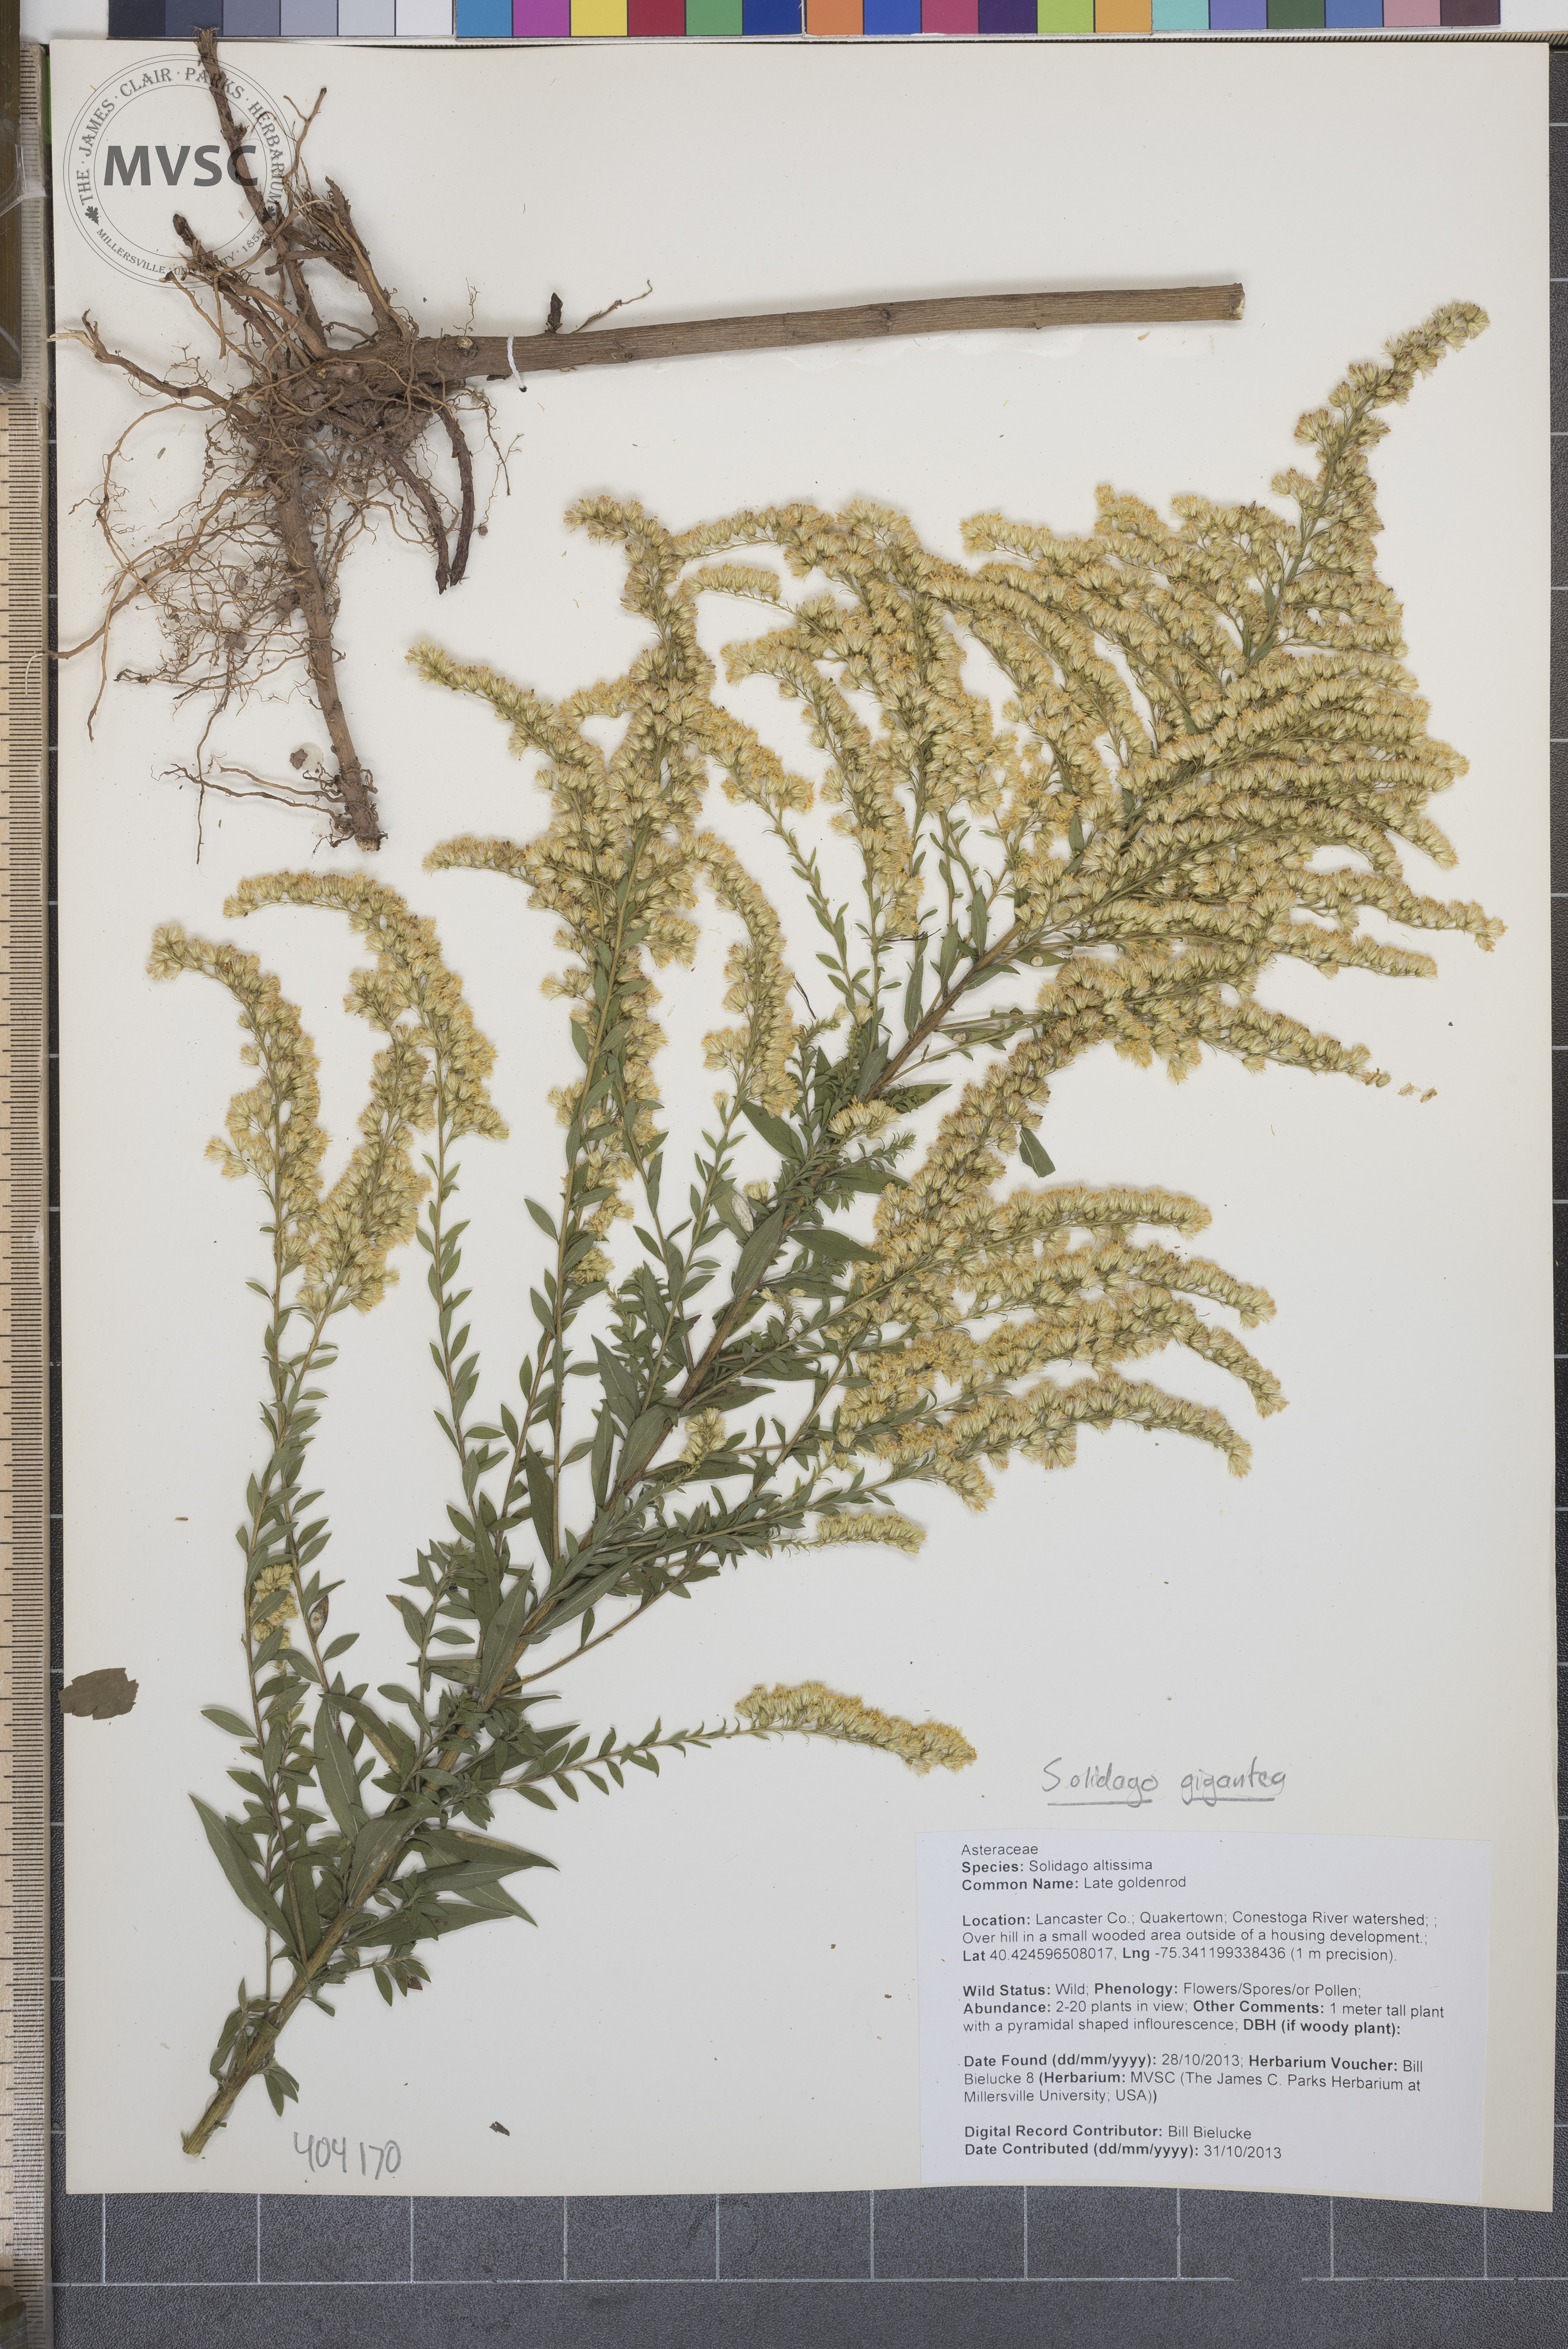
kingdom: Plantae
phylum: Tracheophyta
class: Magnoliopsida
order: Asterales
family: Asteraceae
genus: Solidago
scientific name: Solidago gigantea
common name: Goldenrod
